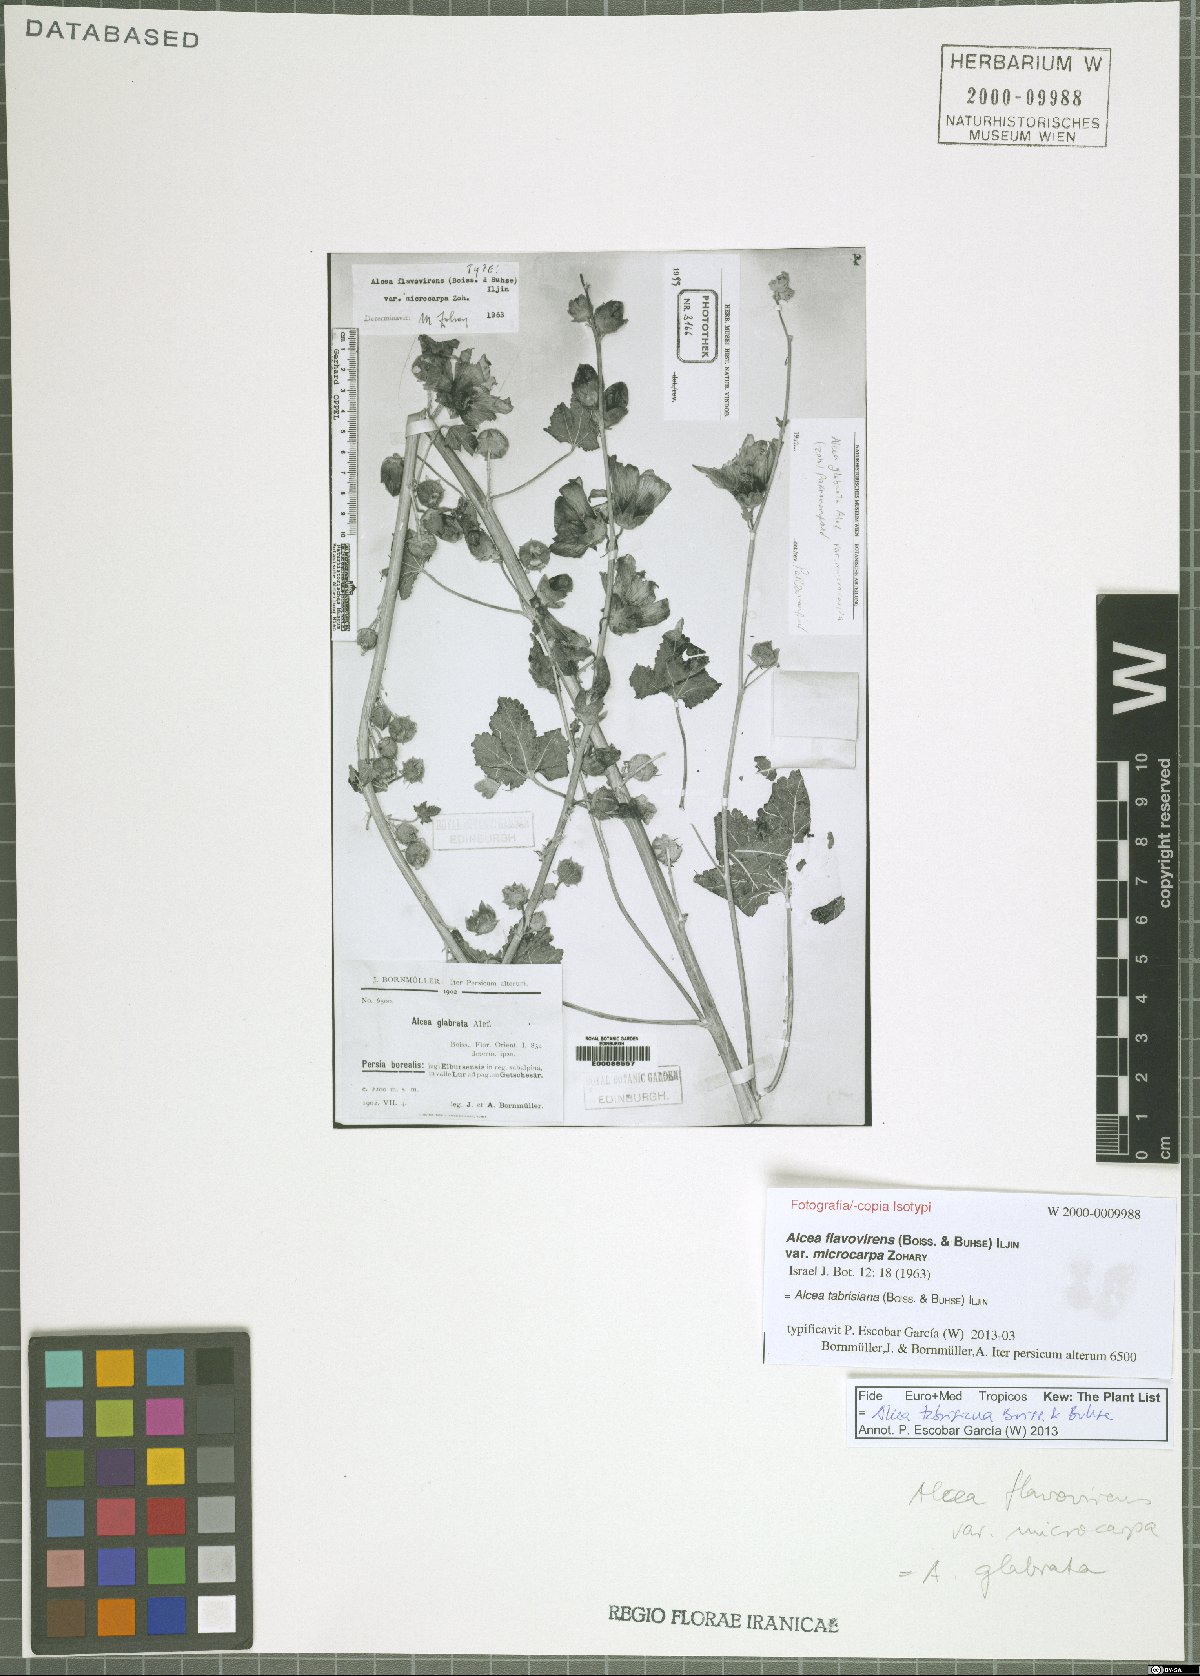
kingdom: Plantae
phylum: Tracheophyta
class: Magnoliopsida
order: Malvales
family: Malvaceae
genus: Alcea
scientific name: Alcea tabrisiana
